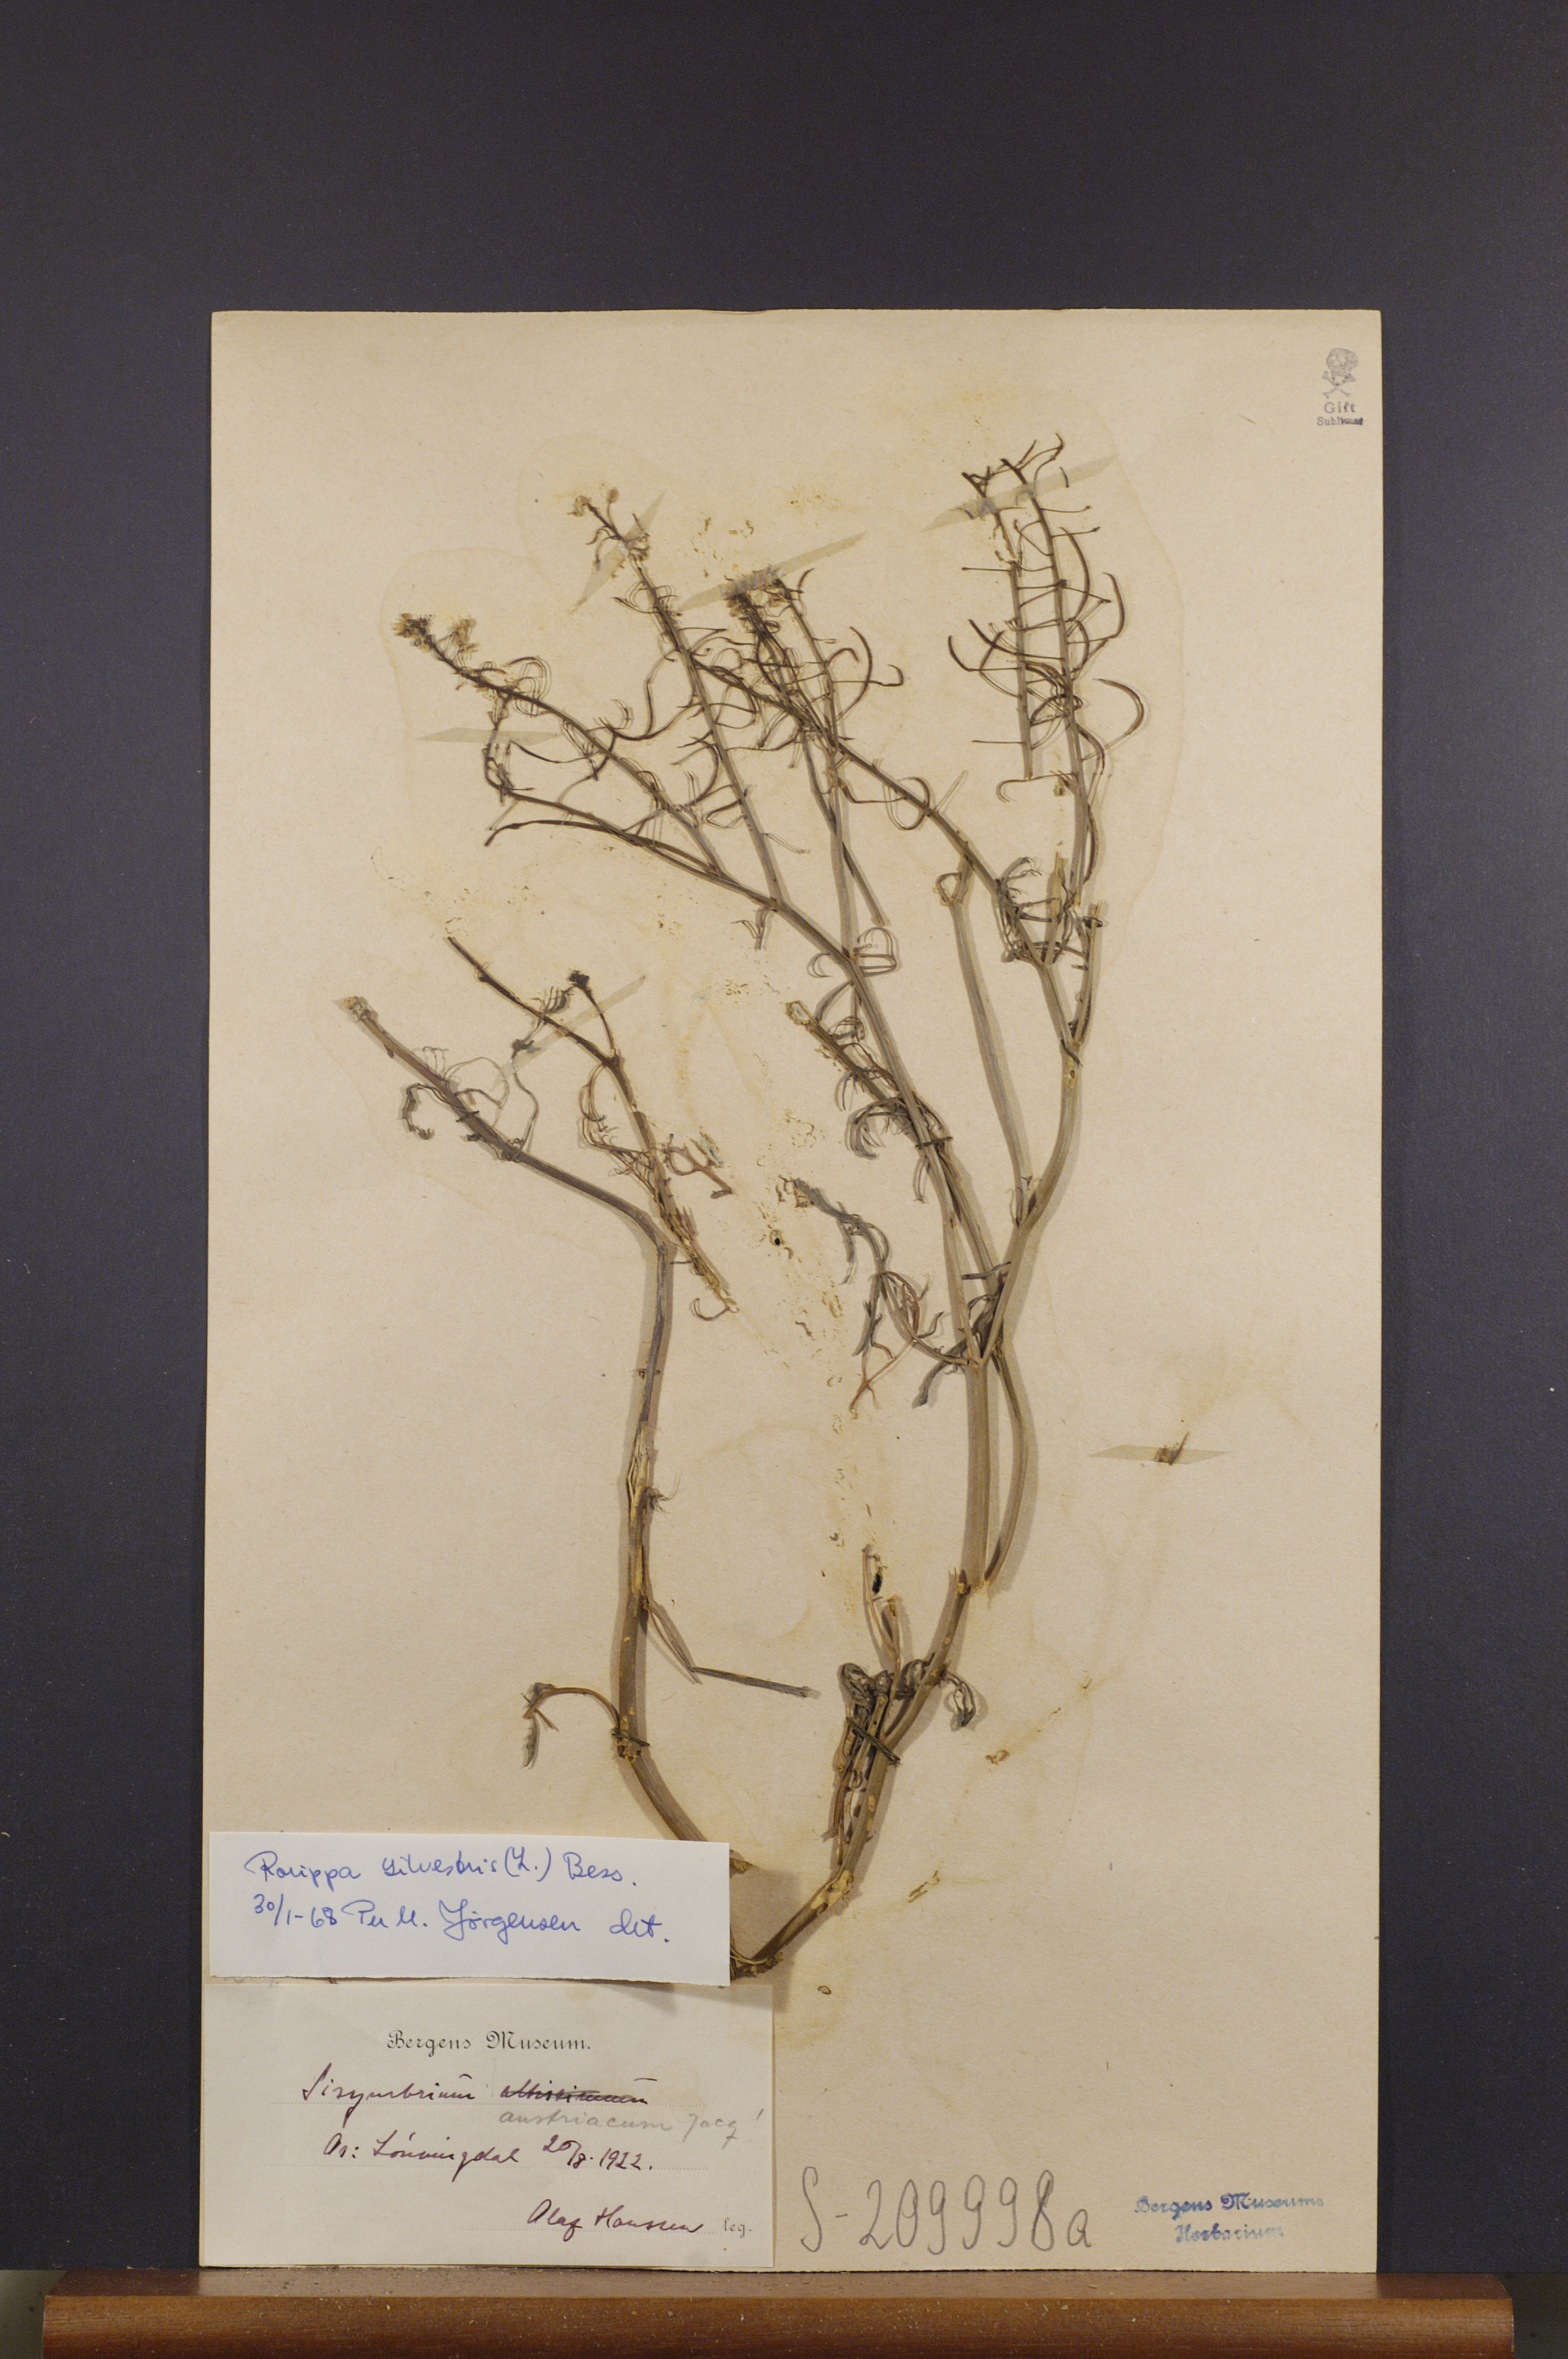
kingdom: Plantae
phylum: Tracheophyta
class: Magnoliopsida
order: Brassicales
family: Brassicaceae
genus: Rorippa
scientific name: Rorippa sylvestris
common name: Creeping yellowcress
